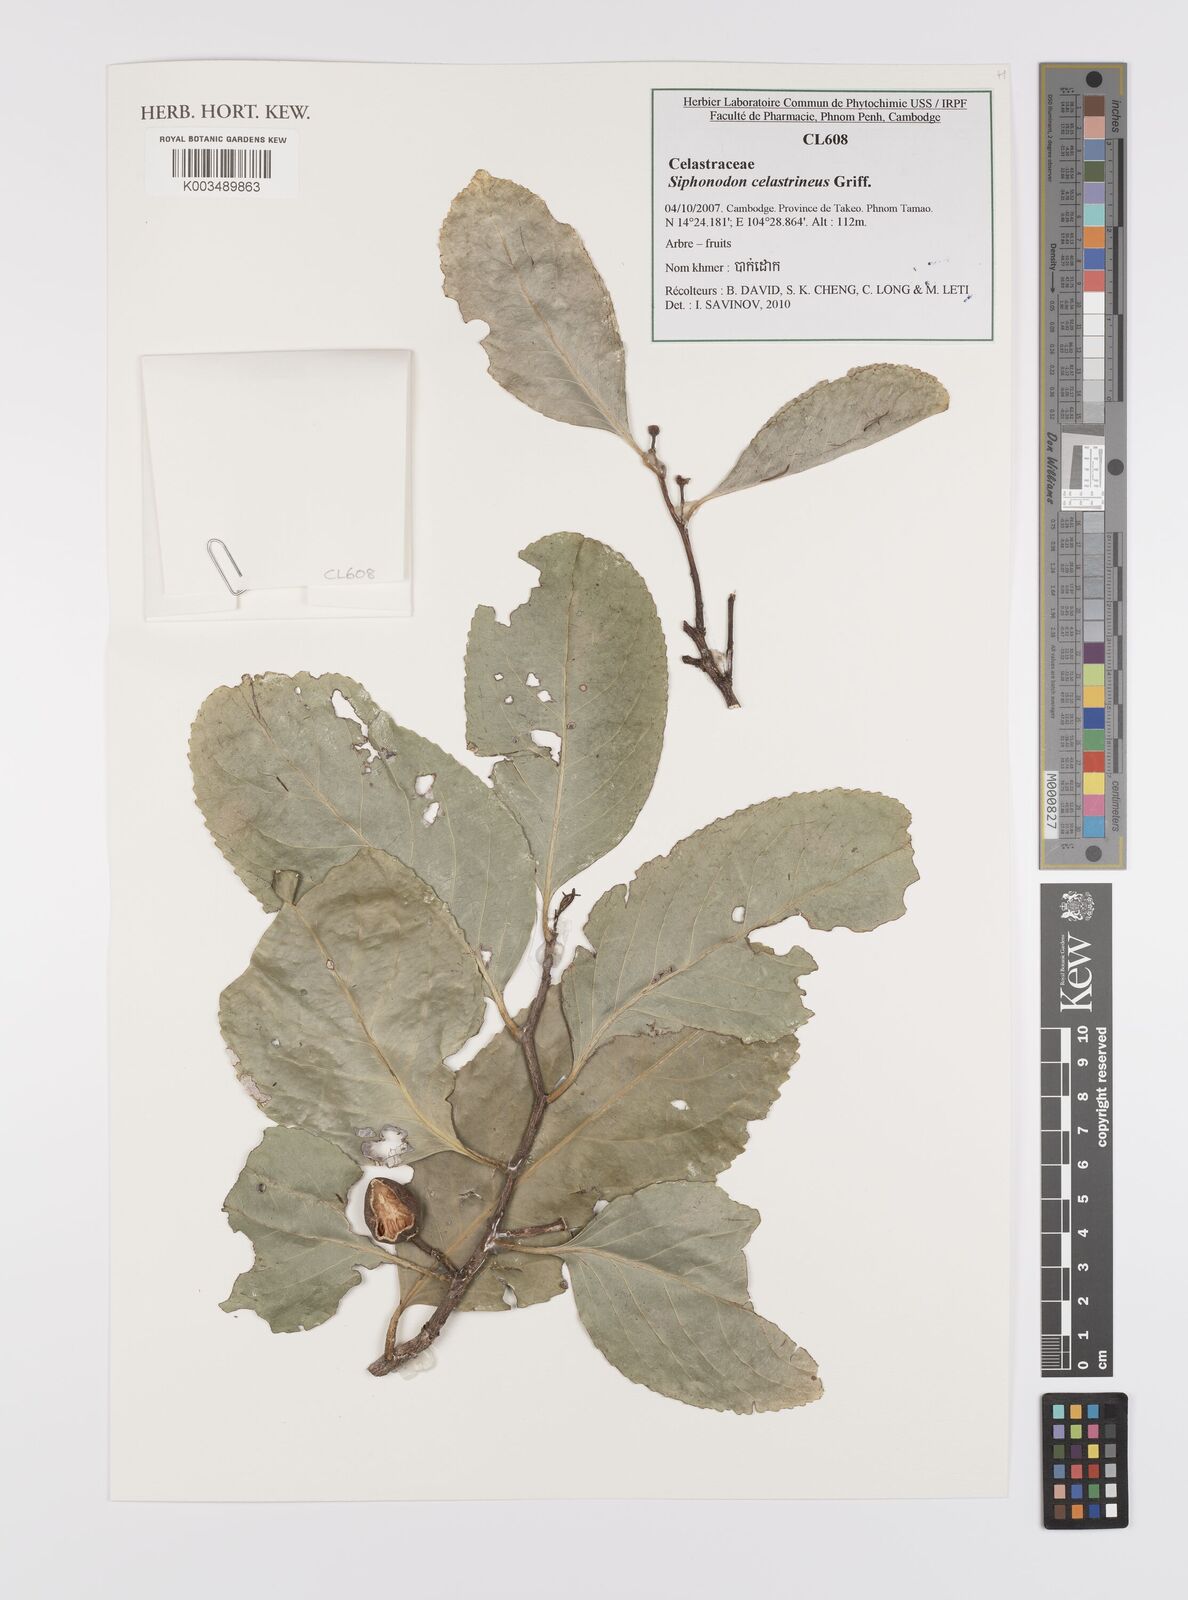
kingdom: Plantae
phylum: Tracheophyta
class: Magnoliopsida
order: Celastrales
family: Celastraceae
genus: Siphonodon
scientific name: Siphonodon celastrineus
